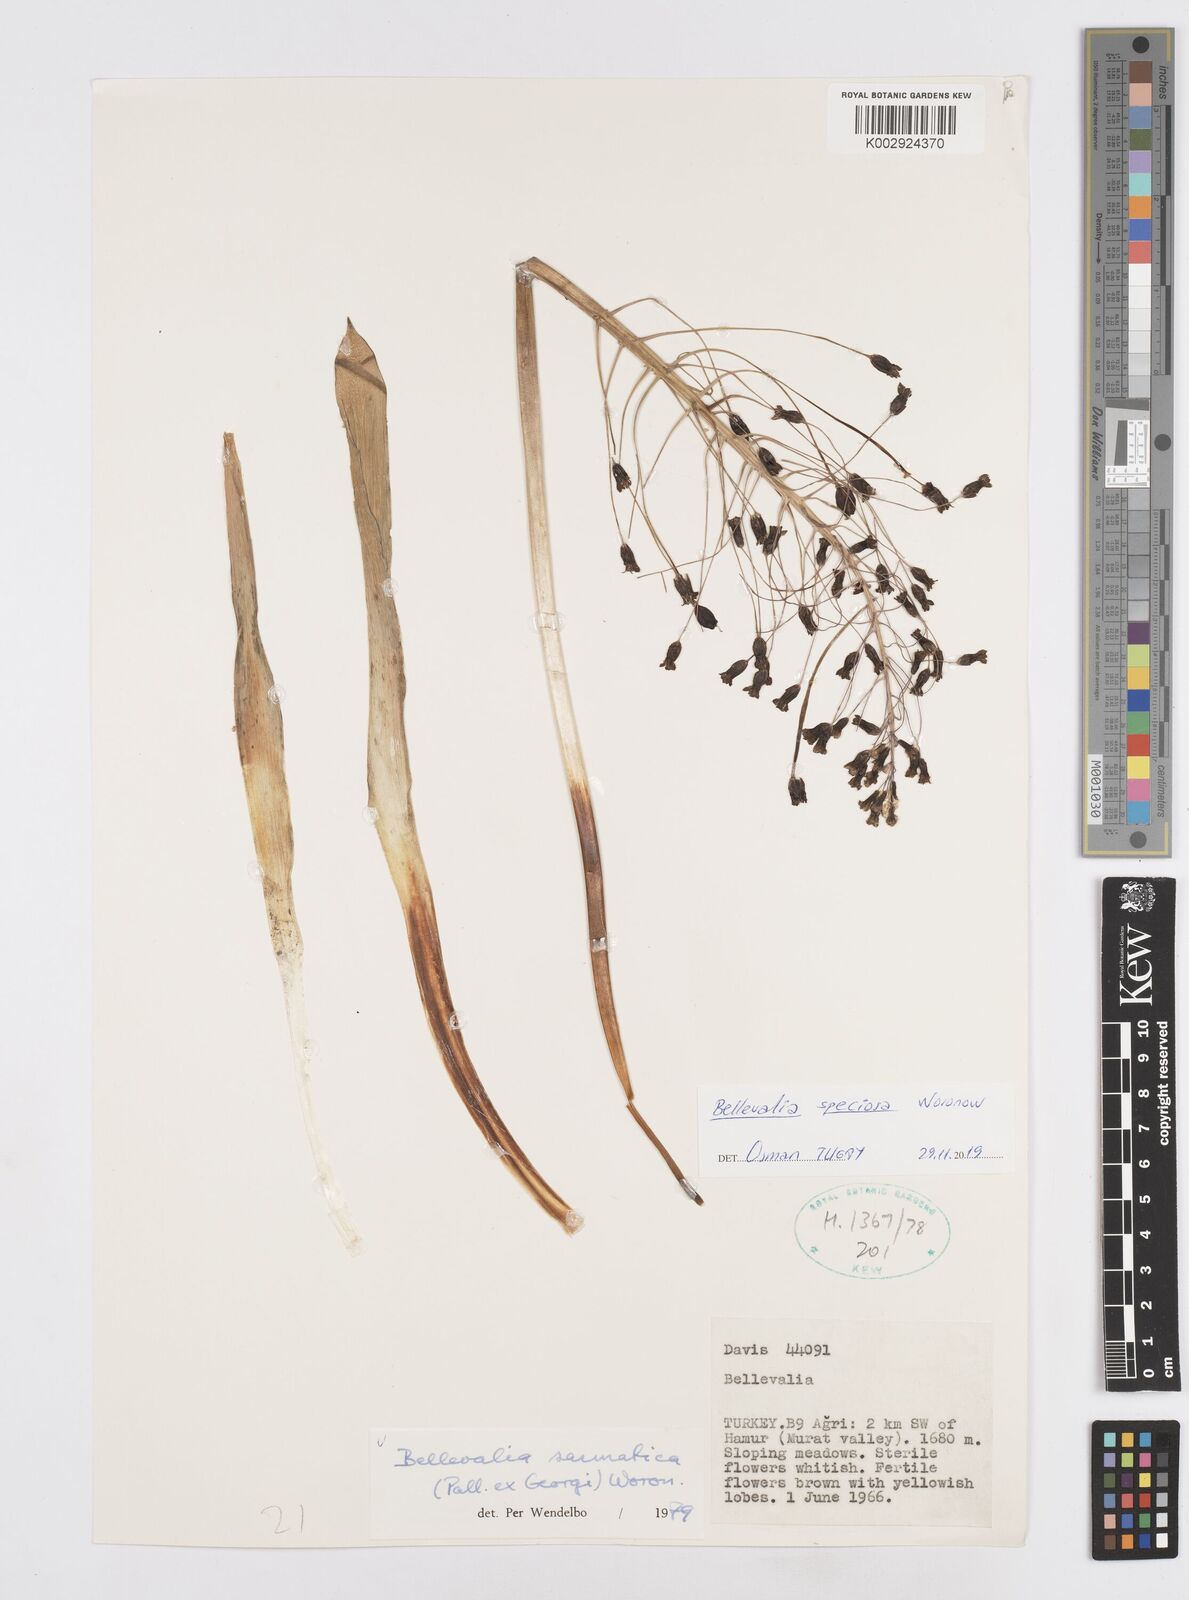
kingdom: Plantae
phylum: Tracheophyta
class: Liliopsida
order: Asparagales
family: Asparagaceae
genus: Bellevalia
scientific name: Bellevalia speciosa
